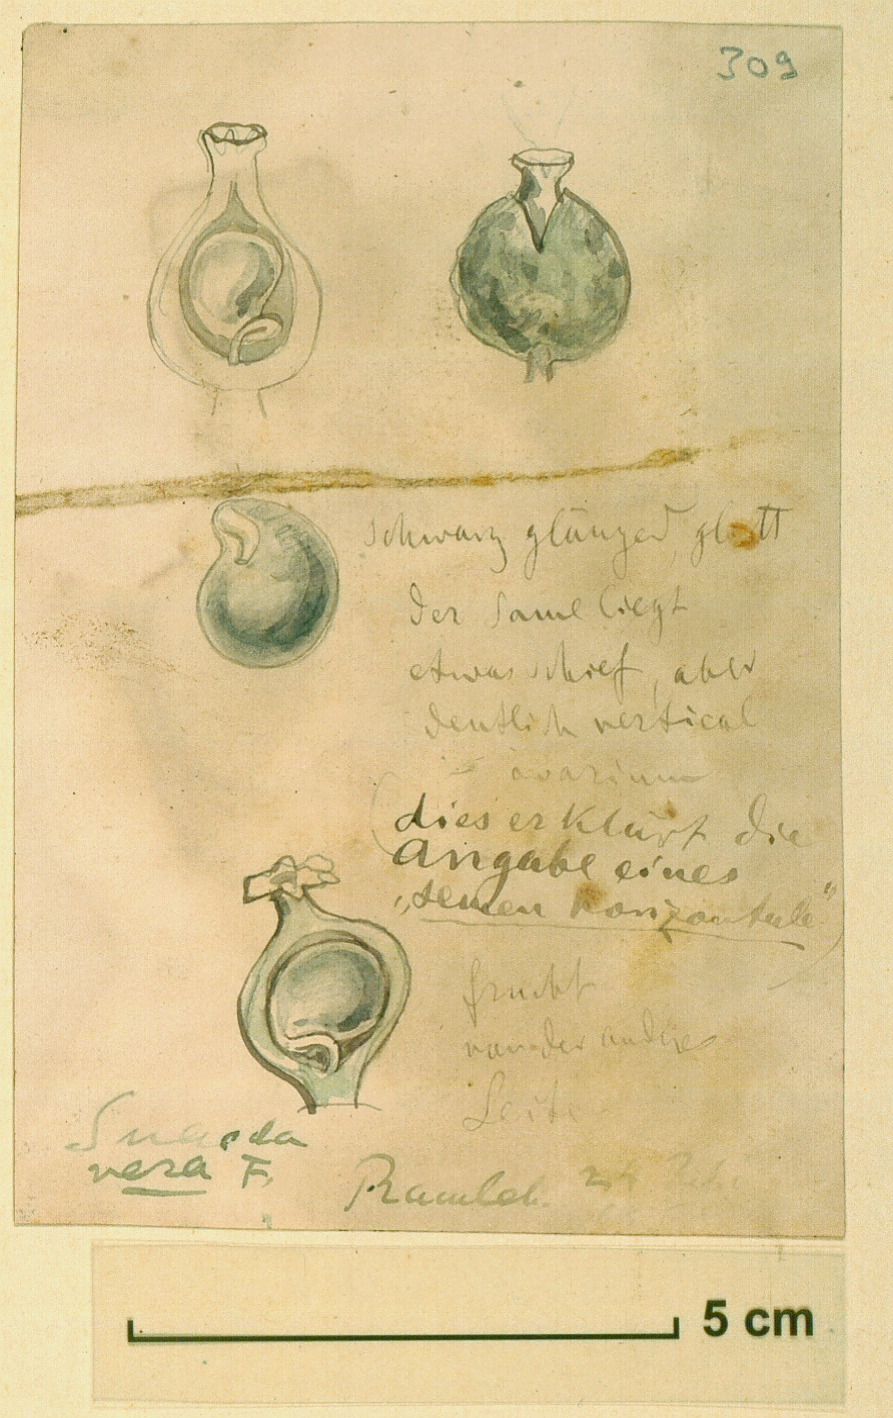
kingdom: Plantae
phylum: Tracheophyta
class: Magnoliopsida
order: Caryophyllales
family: Amaranthaceae
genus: Suaeda
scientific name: Suaeda vera
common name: Shrubby sea-blite
